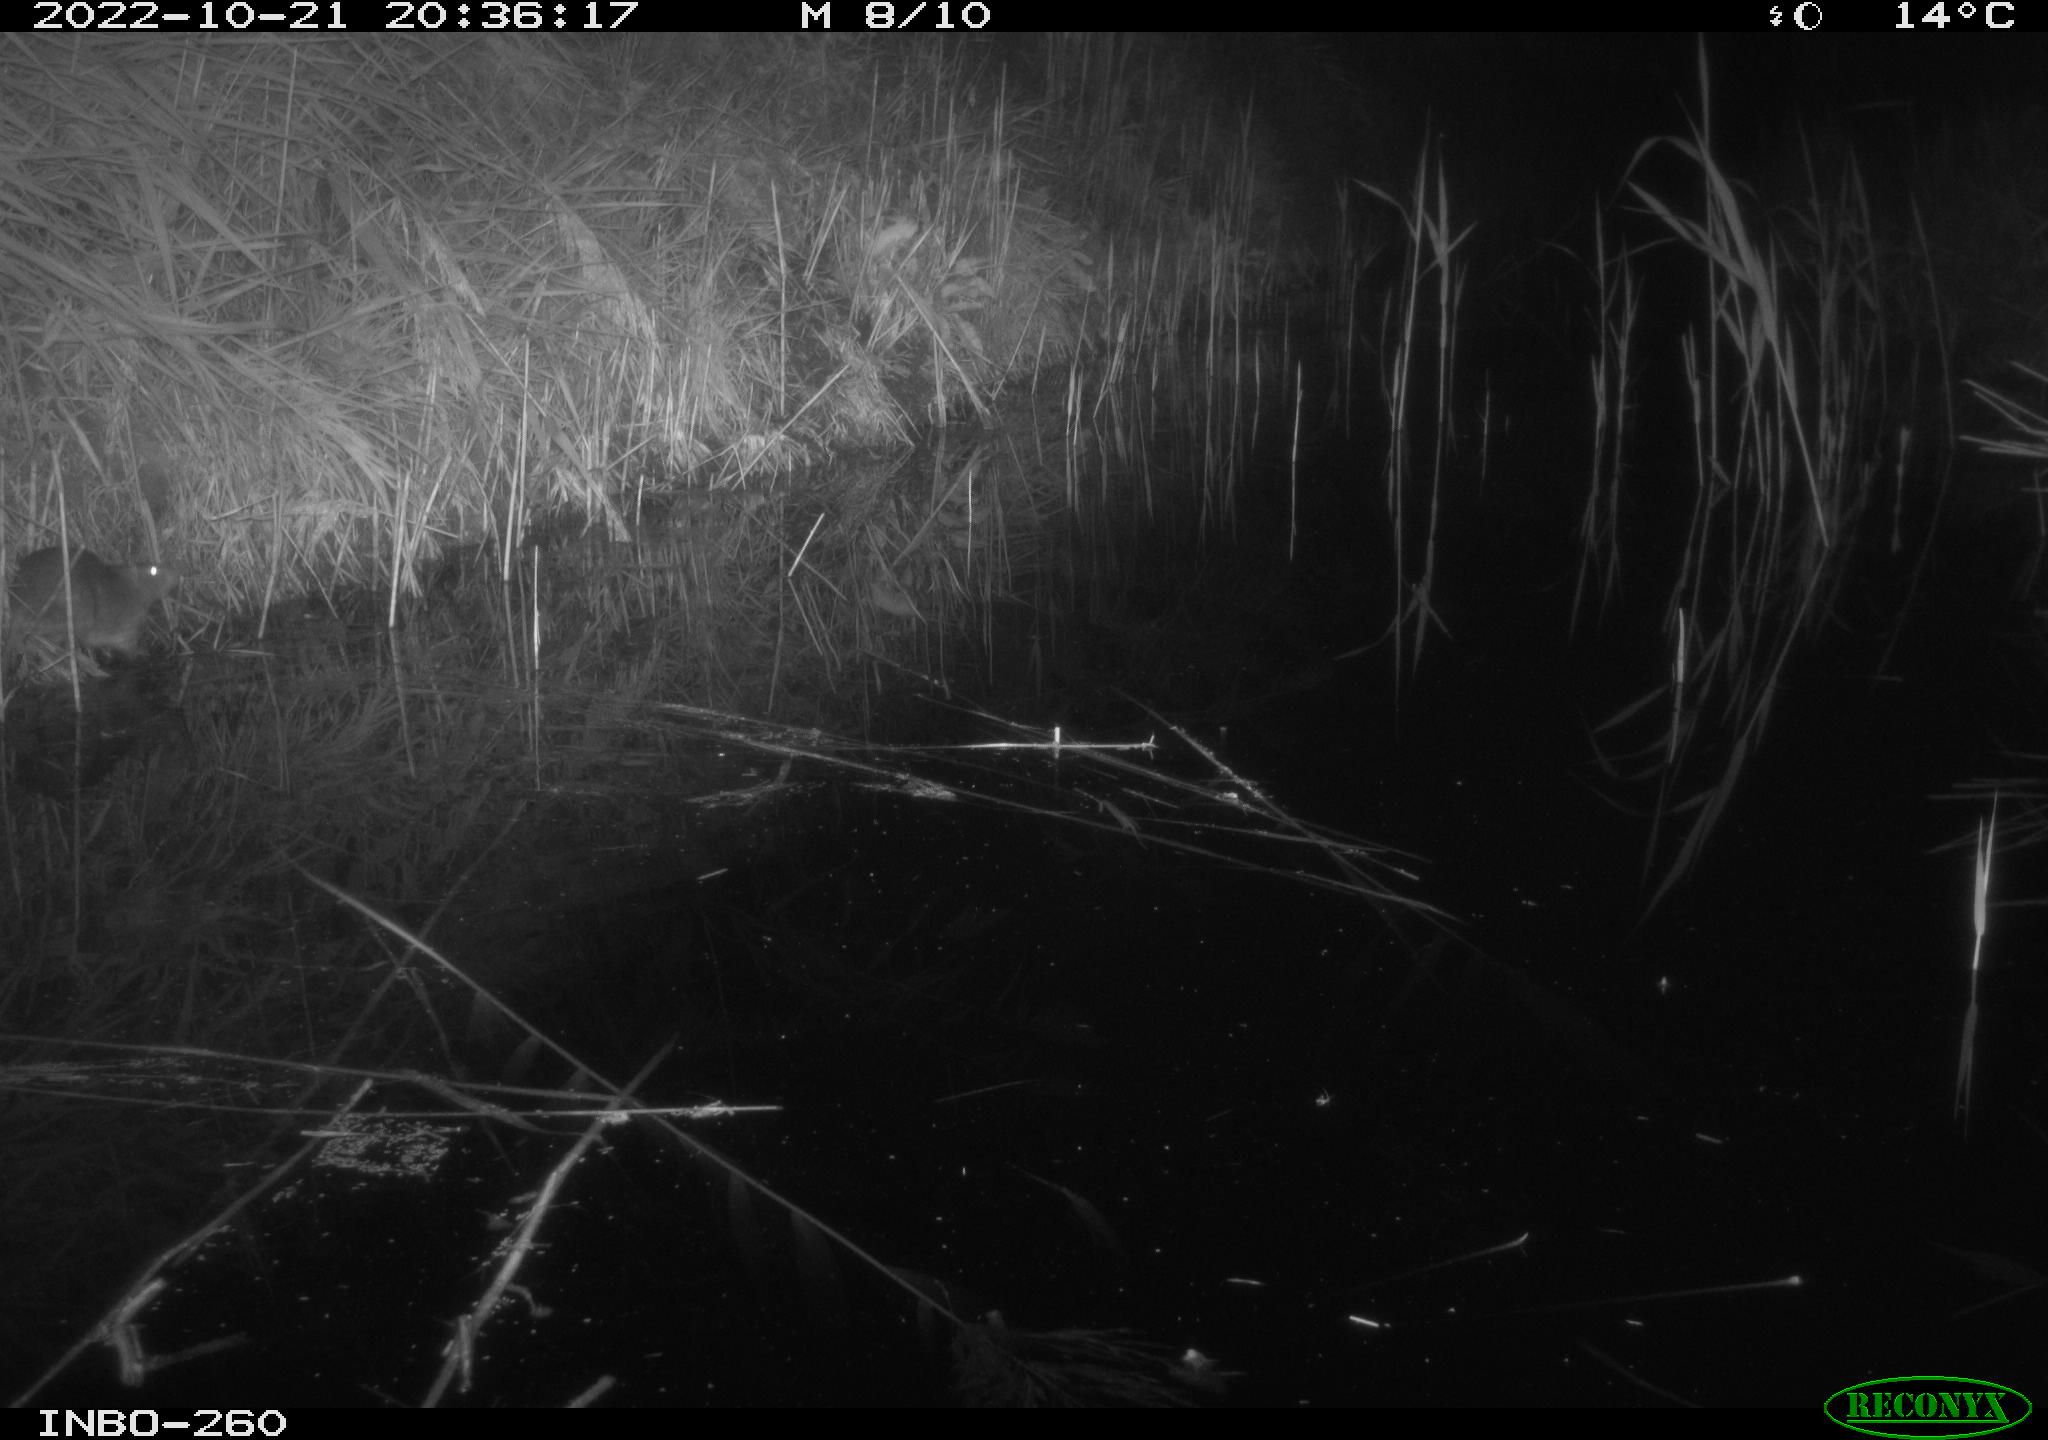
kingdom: Animalia
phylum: Chordata
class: Mammalia
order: Rodentia
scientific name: Rodentia
